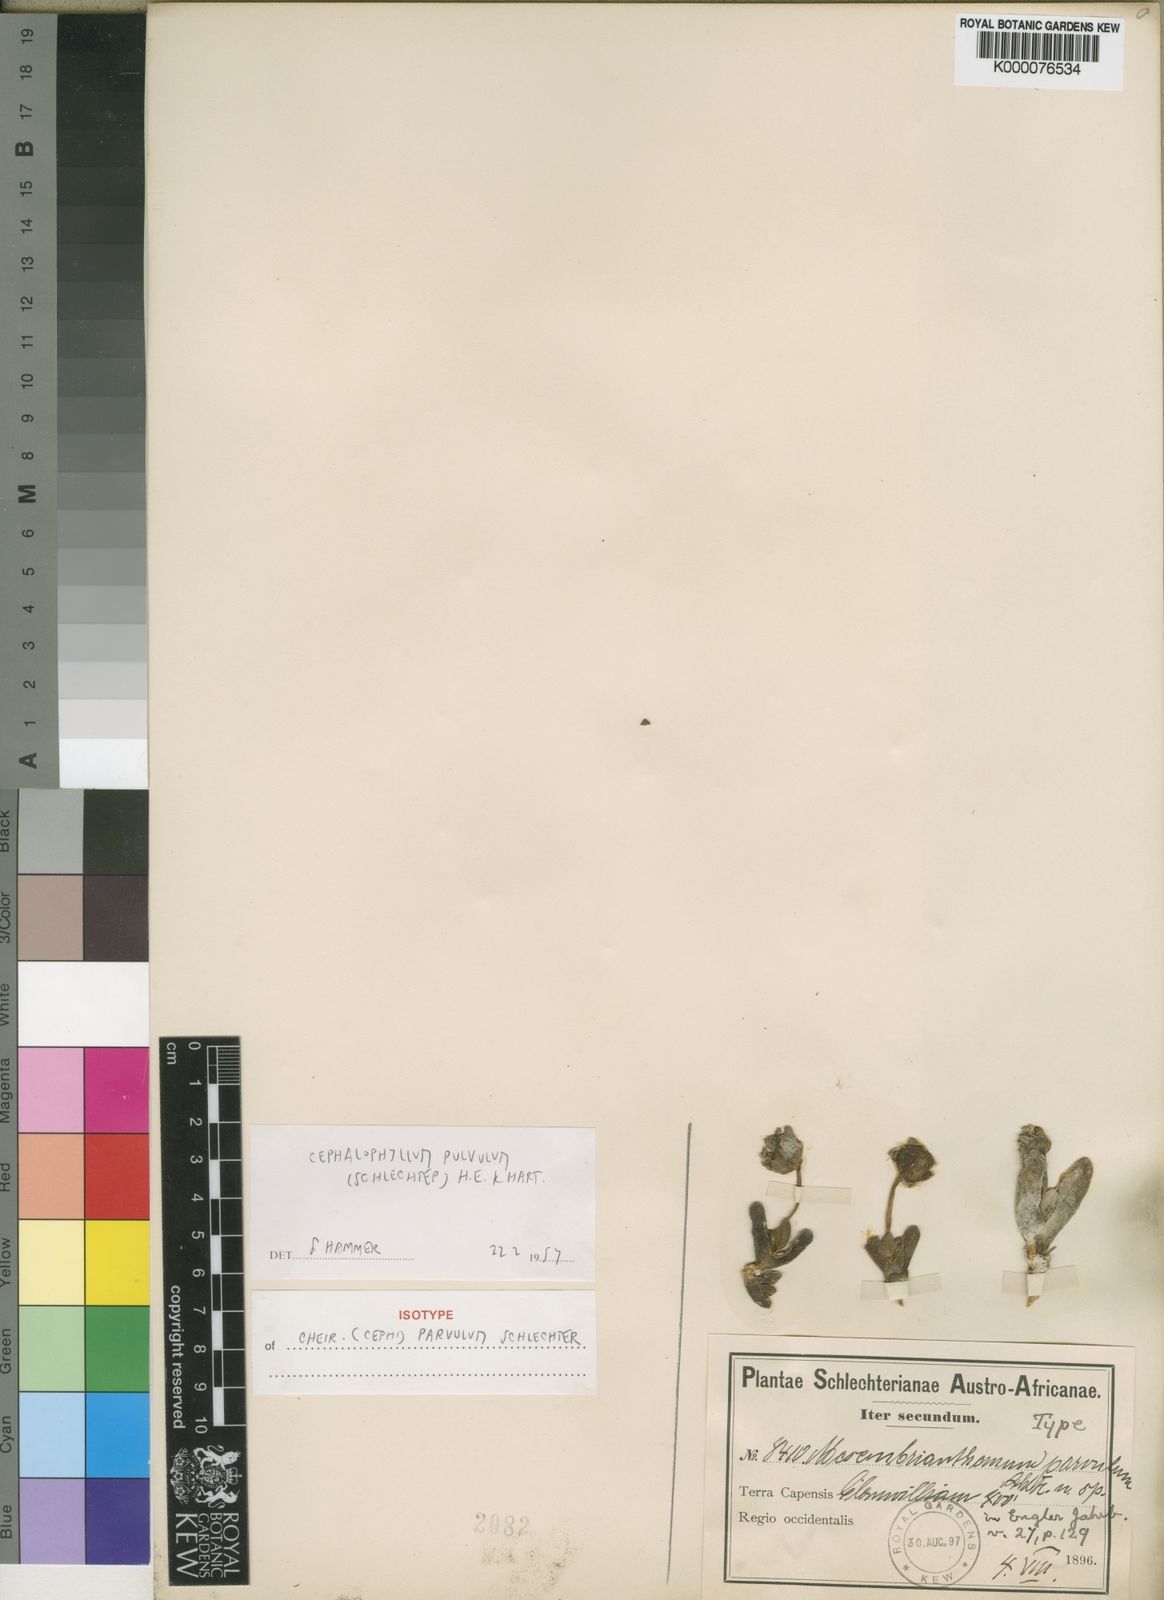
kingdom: Plantae
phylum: Tracheophyta
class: Magnoliopsida
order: Caryophyllales
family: Aizoaceae
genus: Cephalophyllum
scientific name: Cephalophyllum parvulum
